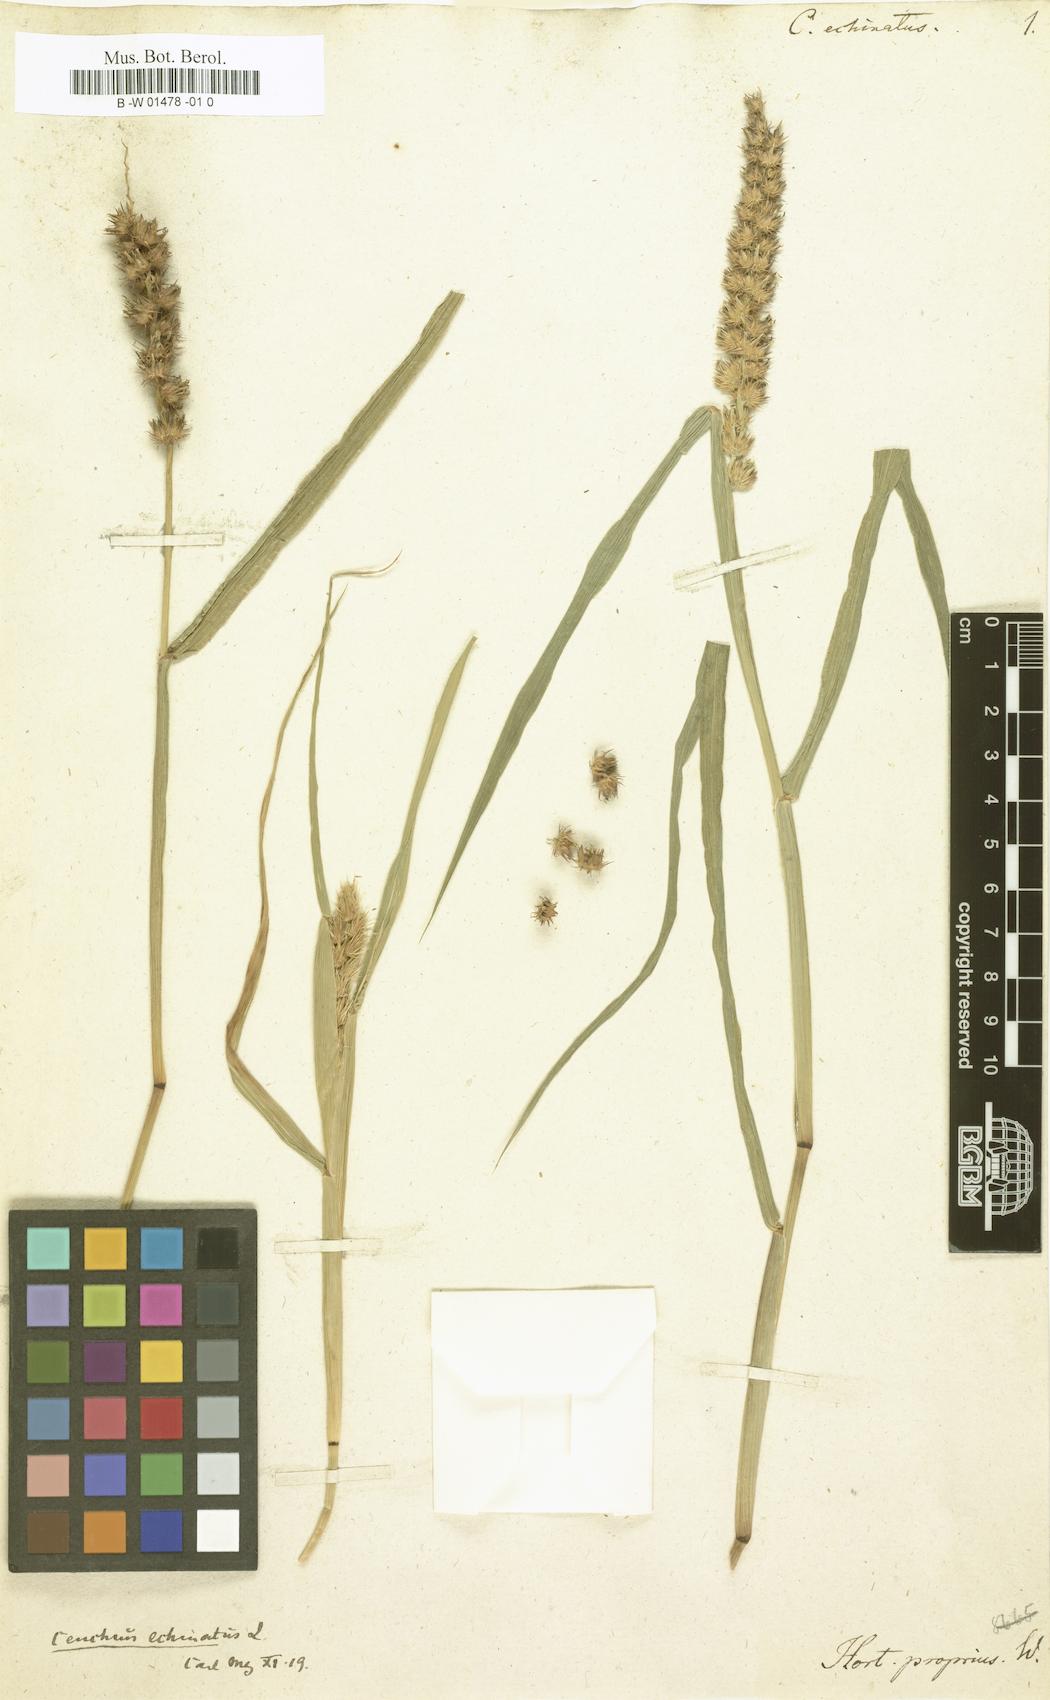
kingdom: Plantae
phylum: Tracheophyta
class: Liliopsida
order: Poales
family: Poaceae
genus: Cenchrus
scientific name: Cenchrus echinatus
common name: Southern sandbur
